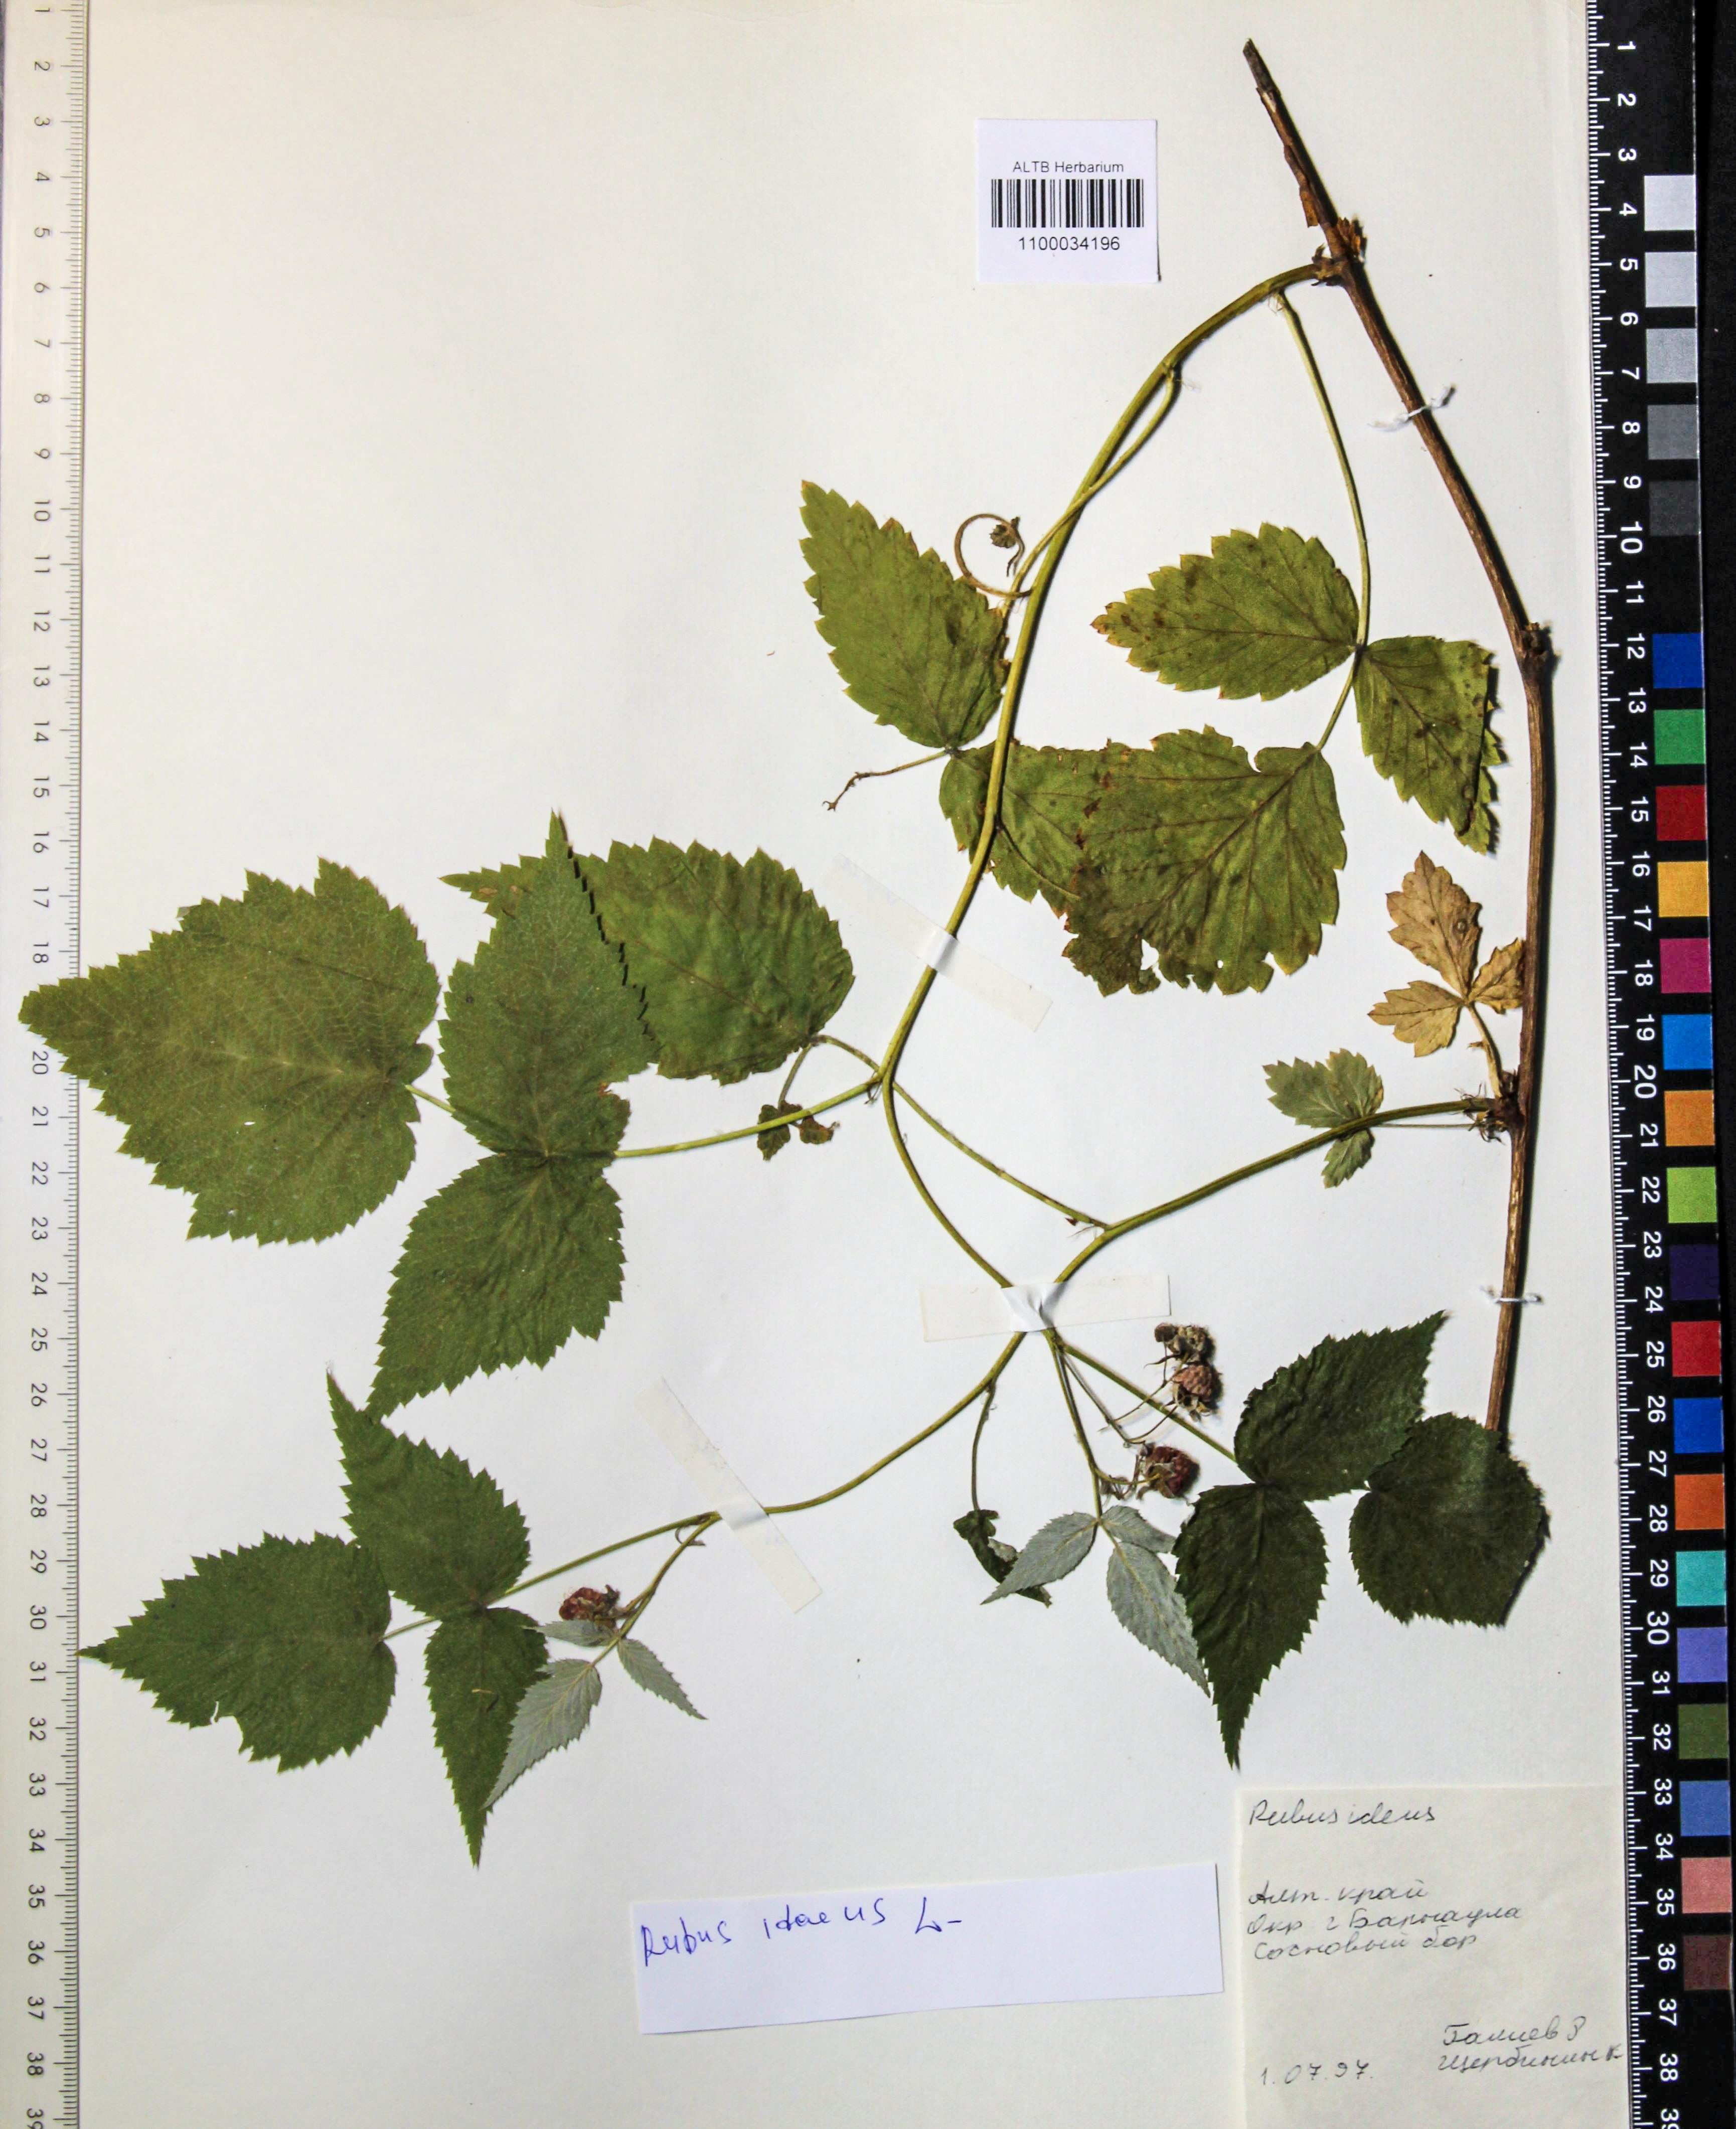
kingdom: Plantae
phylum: Tracheophyta
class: Magnoliopsida
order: Rosales
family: Rosaceae
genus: Rubus
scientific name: Rubus idaeus
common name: Raspberry
